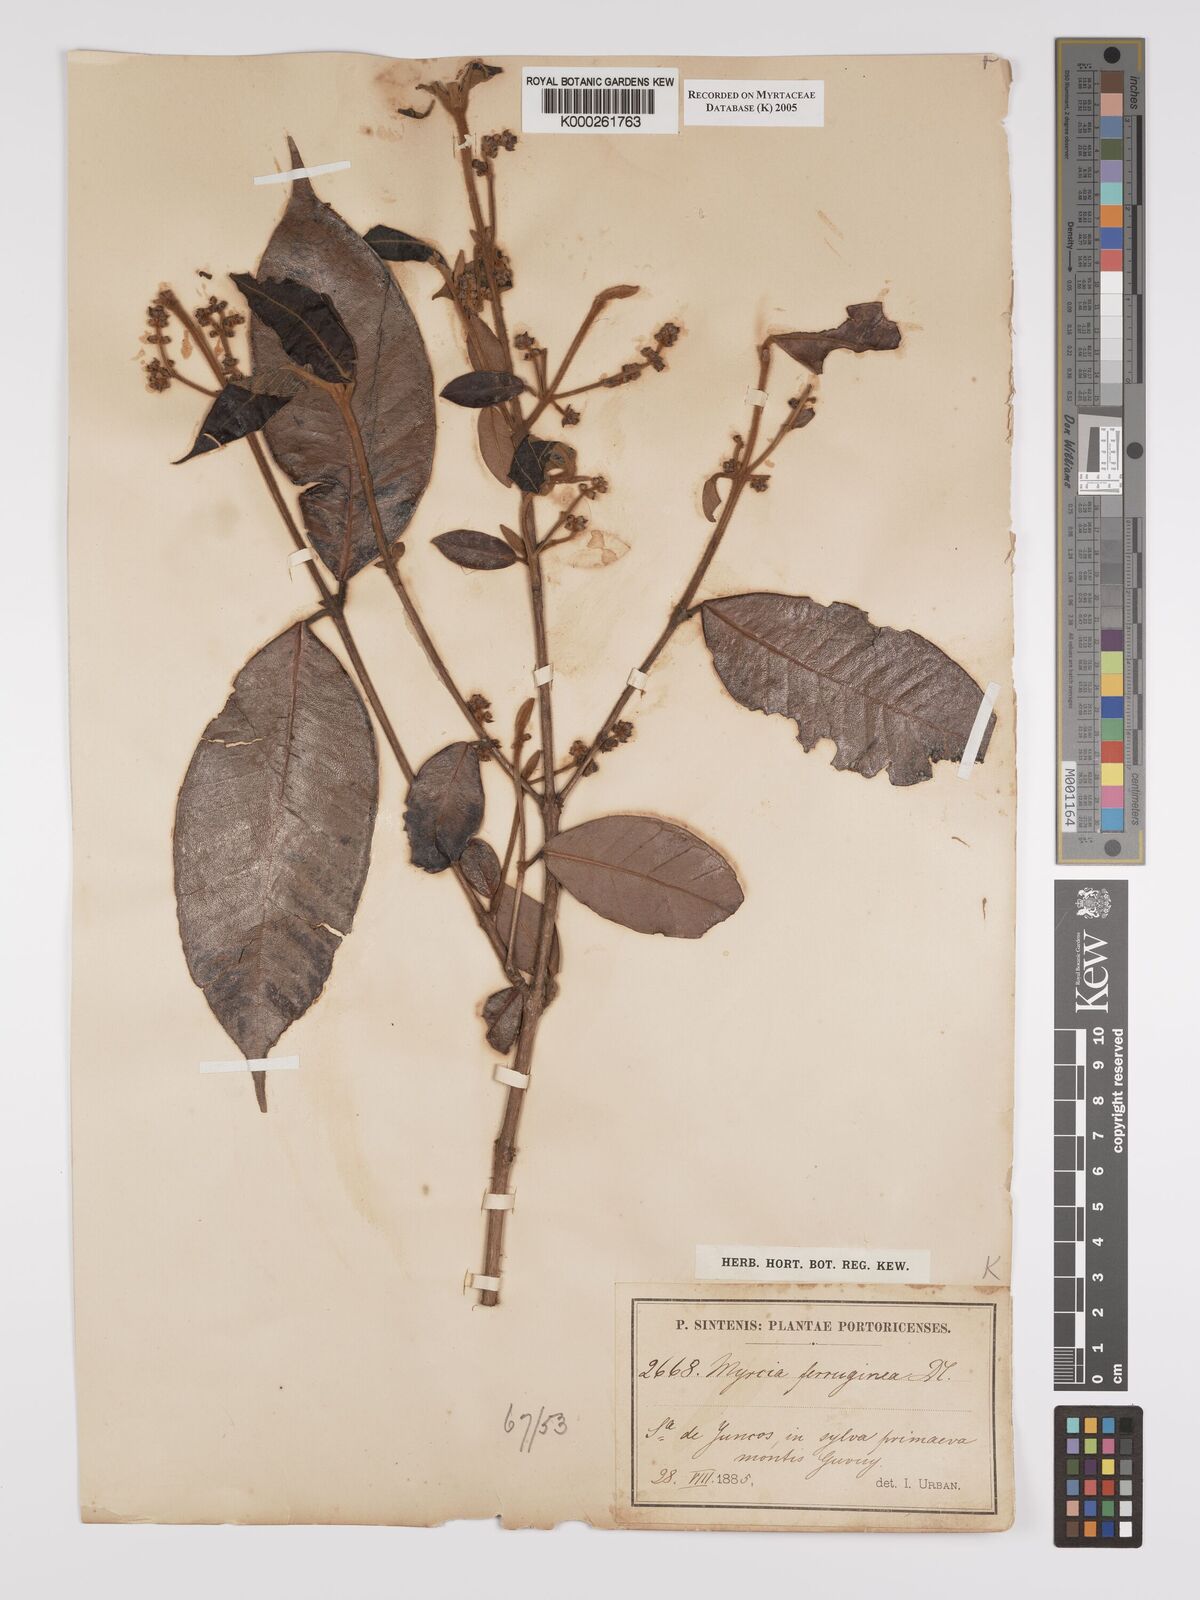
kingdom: Plantae
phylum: Tracheophyta
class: Magnoliopsida
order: Myrtales
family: Myrtaceae
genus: Myrcia
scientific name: Myrcia ferruginea
